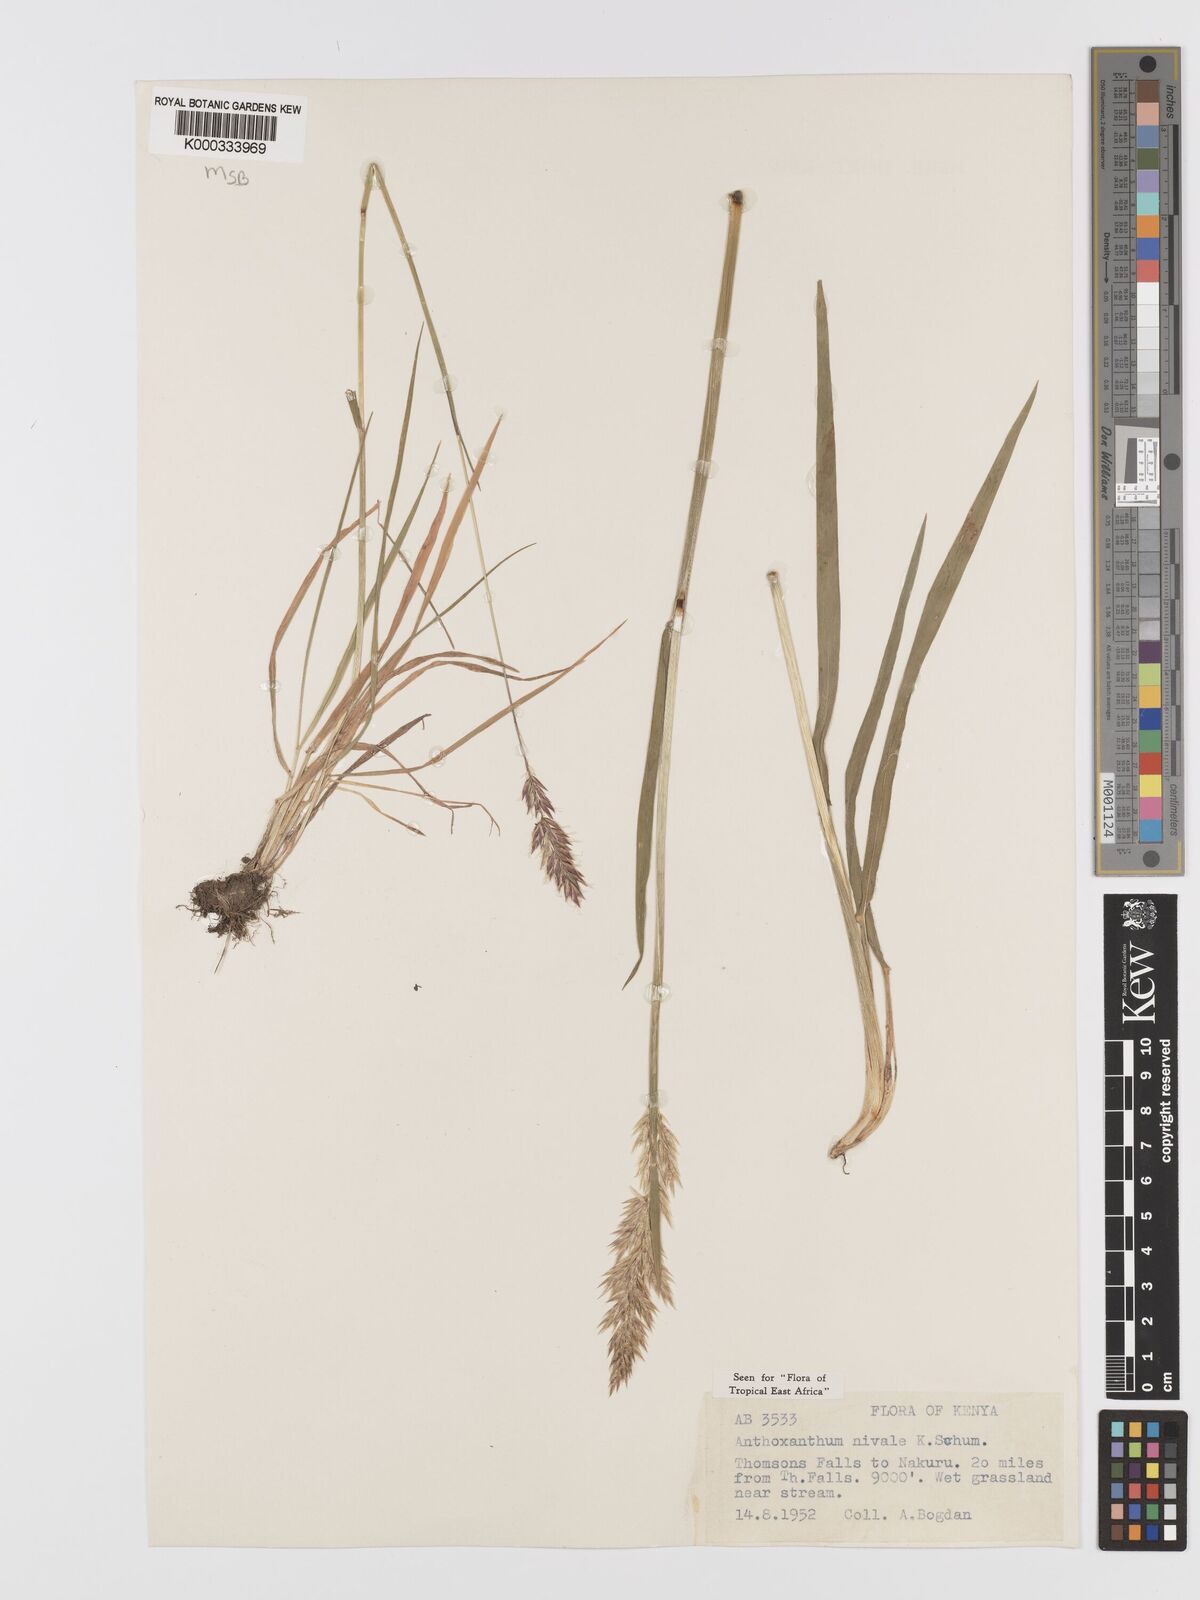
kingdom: Plantae
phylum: Tracheophyta
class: Liliopsida
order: Poales
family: Poaceae
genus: Anthoxanthum
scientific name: Anthoxanthum
